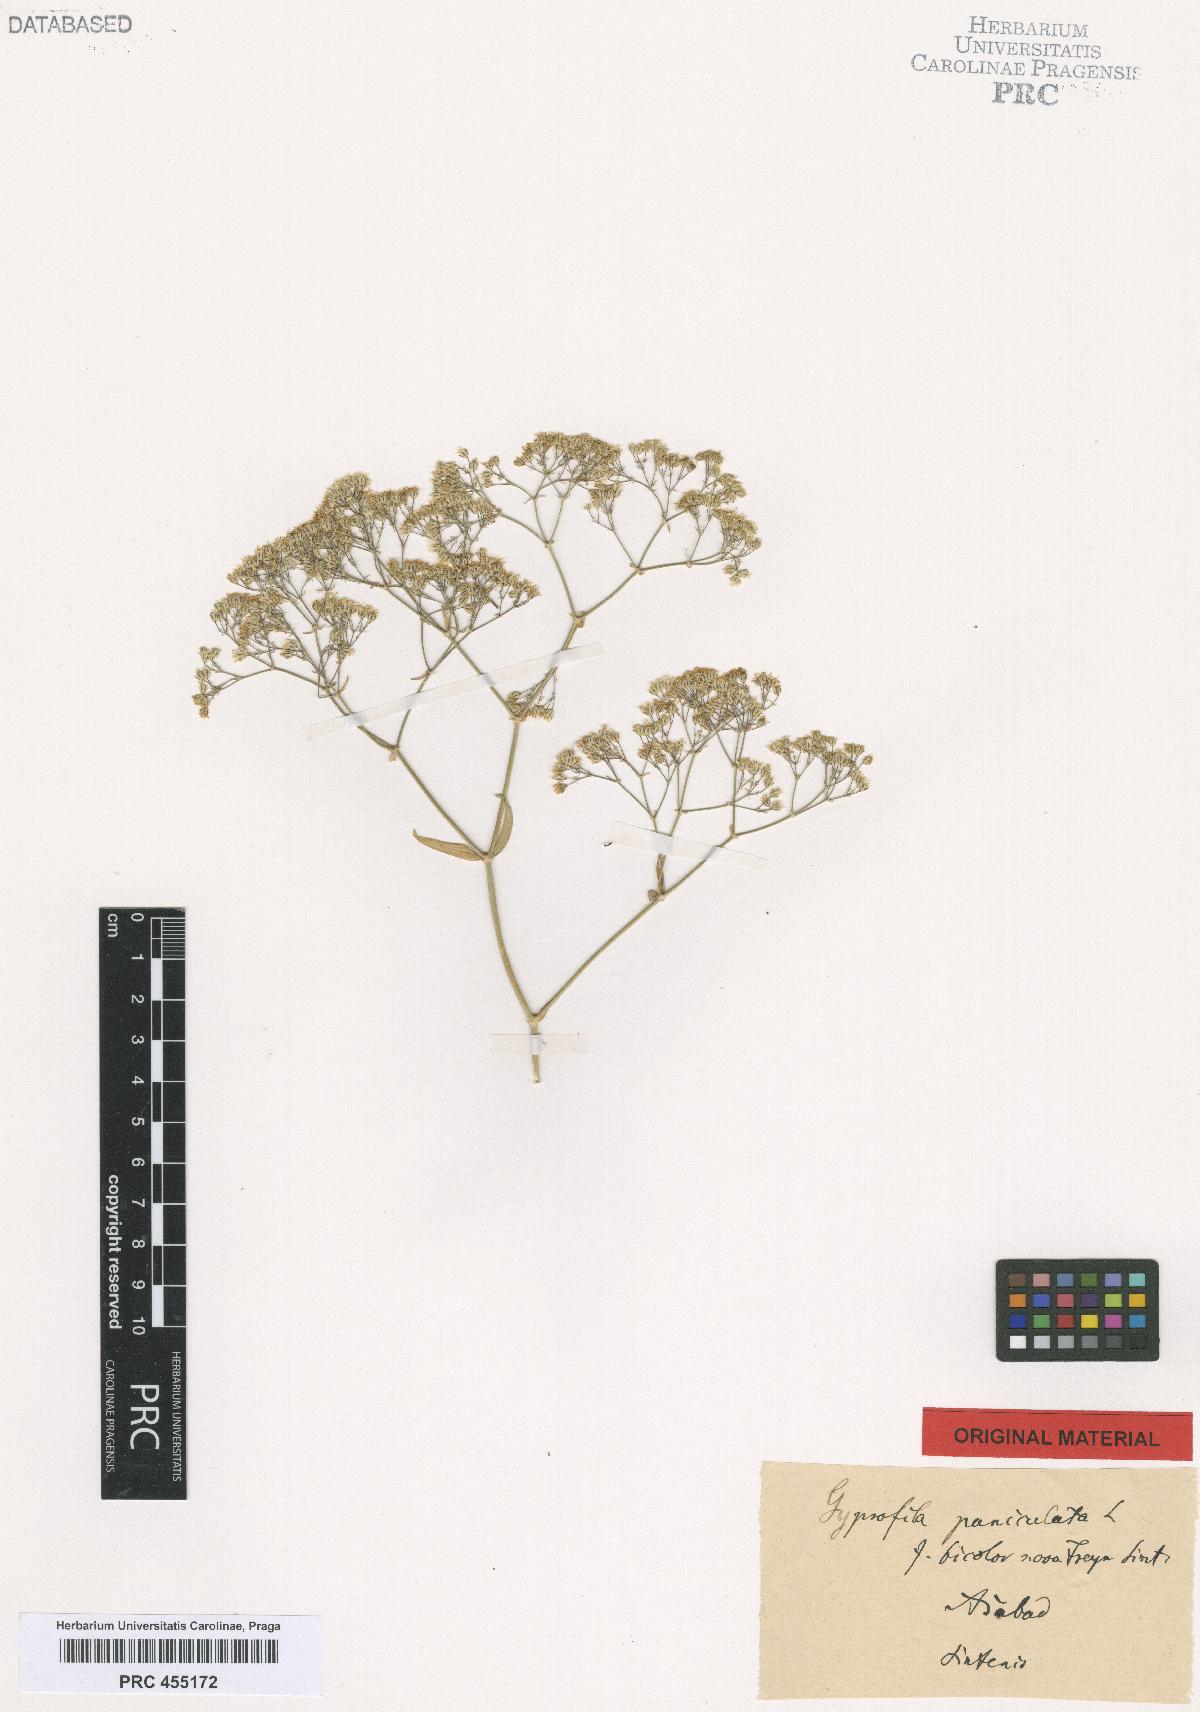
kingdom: Plantae
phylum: Tracheophyta
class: Magnoliopsida
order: Caryophyllales
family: Caryophyllaceae
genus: Gypsophila
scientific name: Gypsophila bicolor
